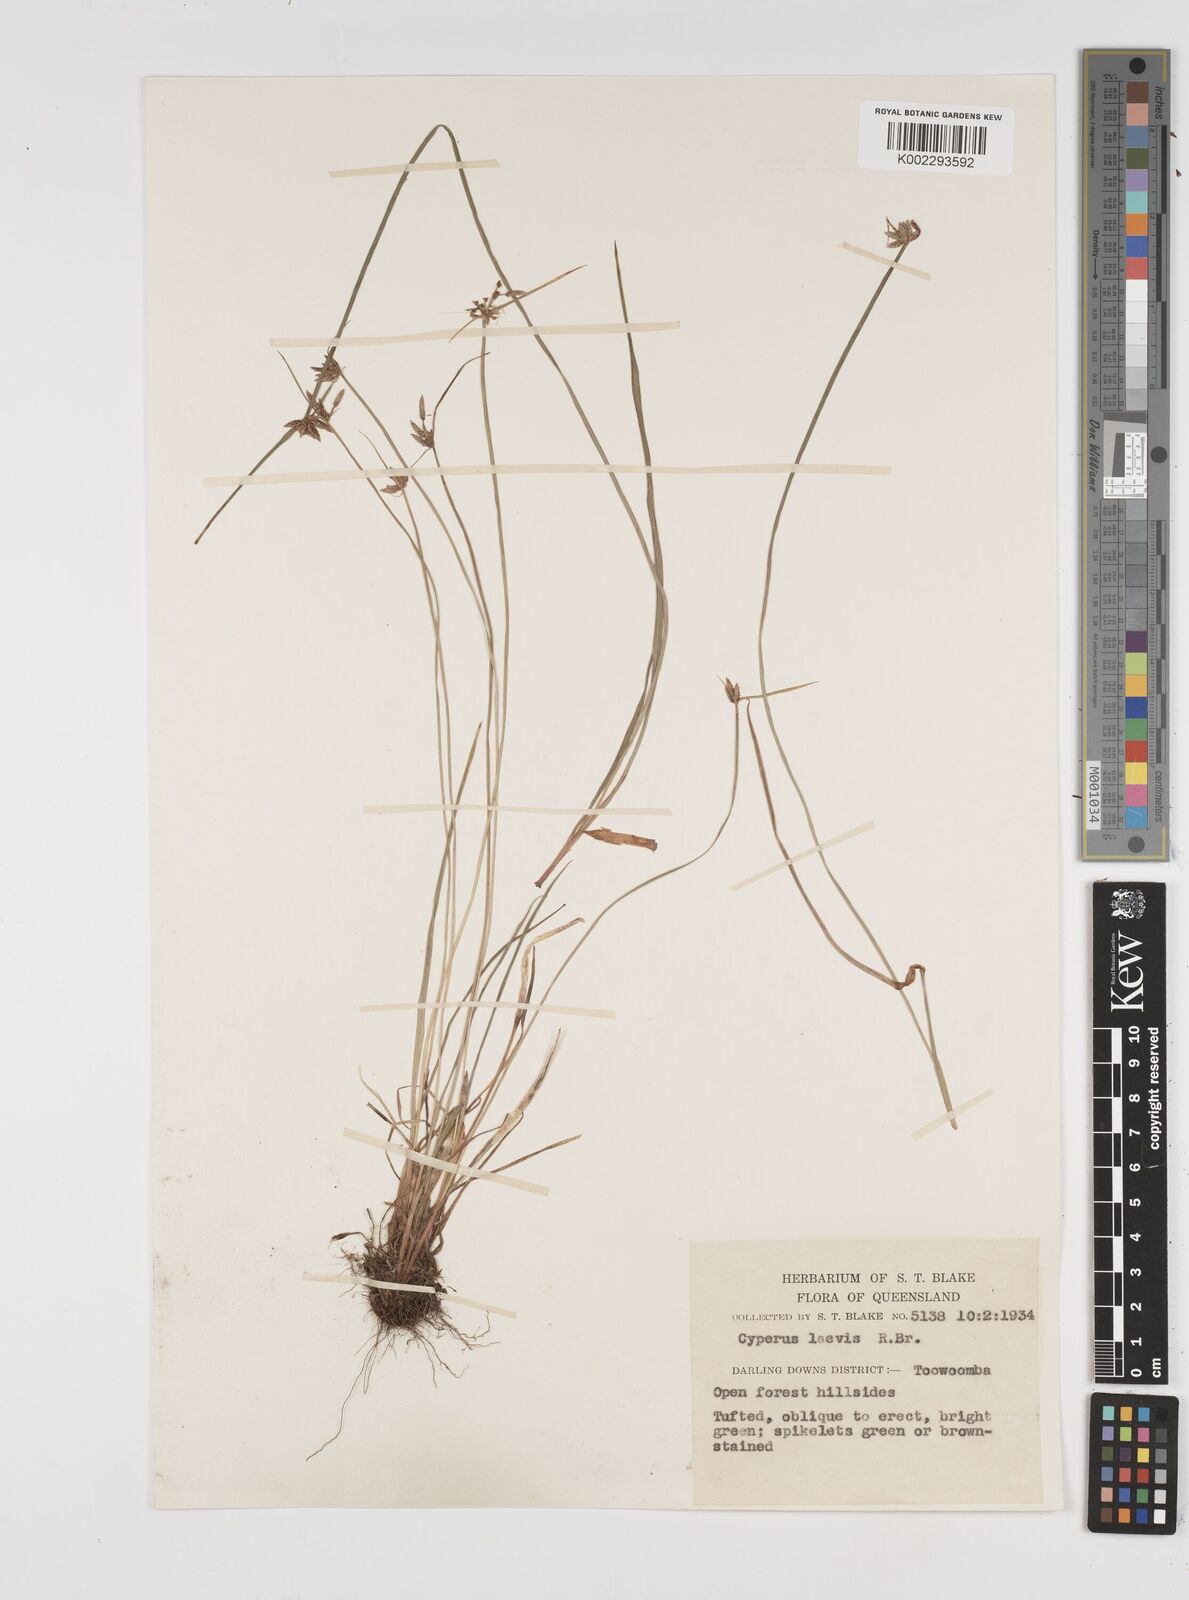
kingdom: Plantae
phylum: Tracheophyta
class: Liliopsida
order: Poales
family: Cyperaceae
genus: Cyperus
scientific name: Cyperus laevis
